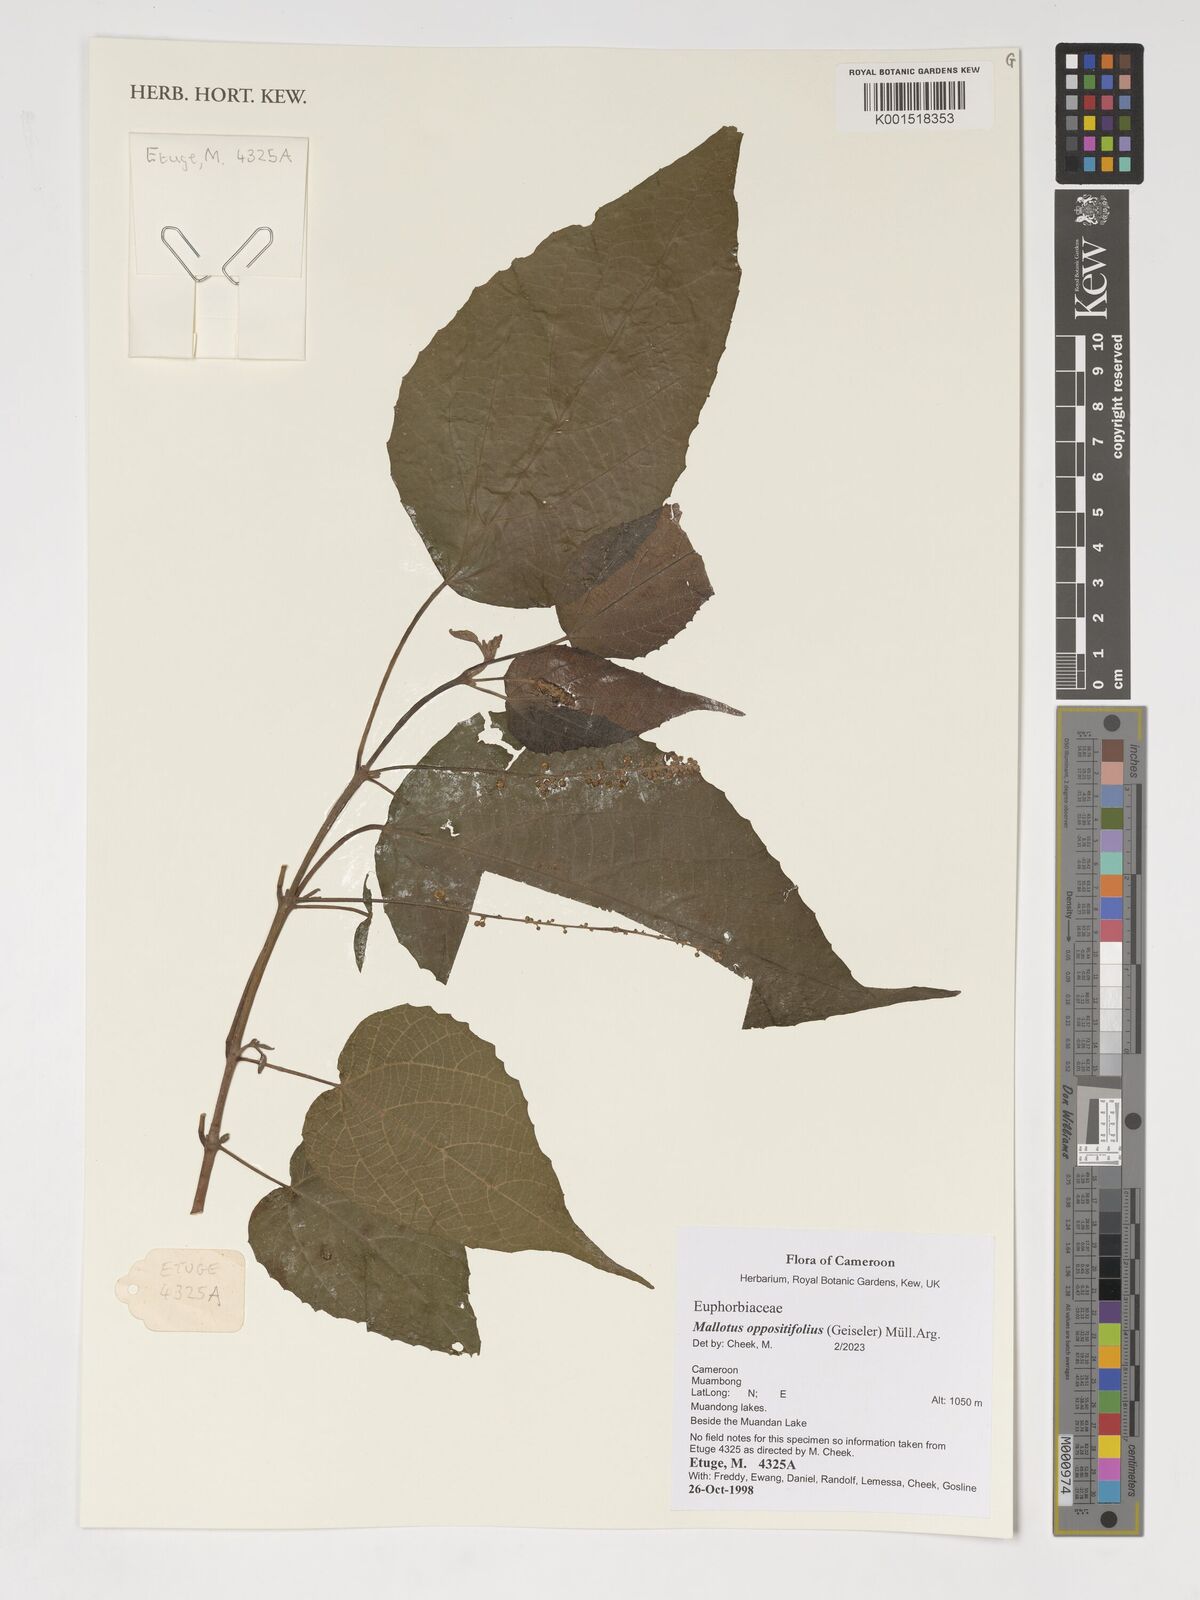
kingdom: Plantae
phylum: Tracheophyta
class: Magnoliopsida
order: Malpighiales
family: Euphorbiaceae
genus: Mallotus
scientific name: Mallotus oppositifolius
